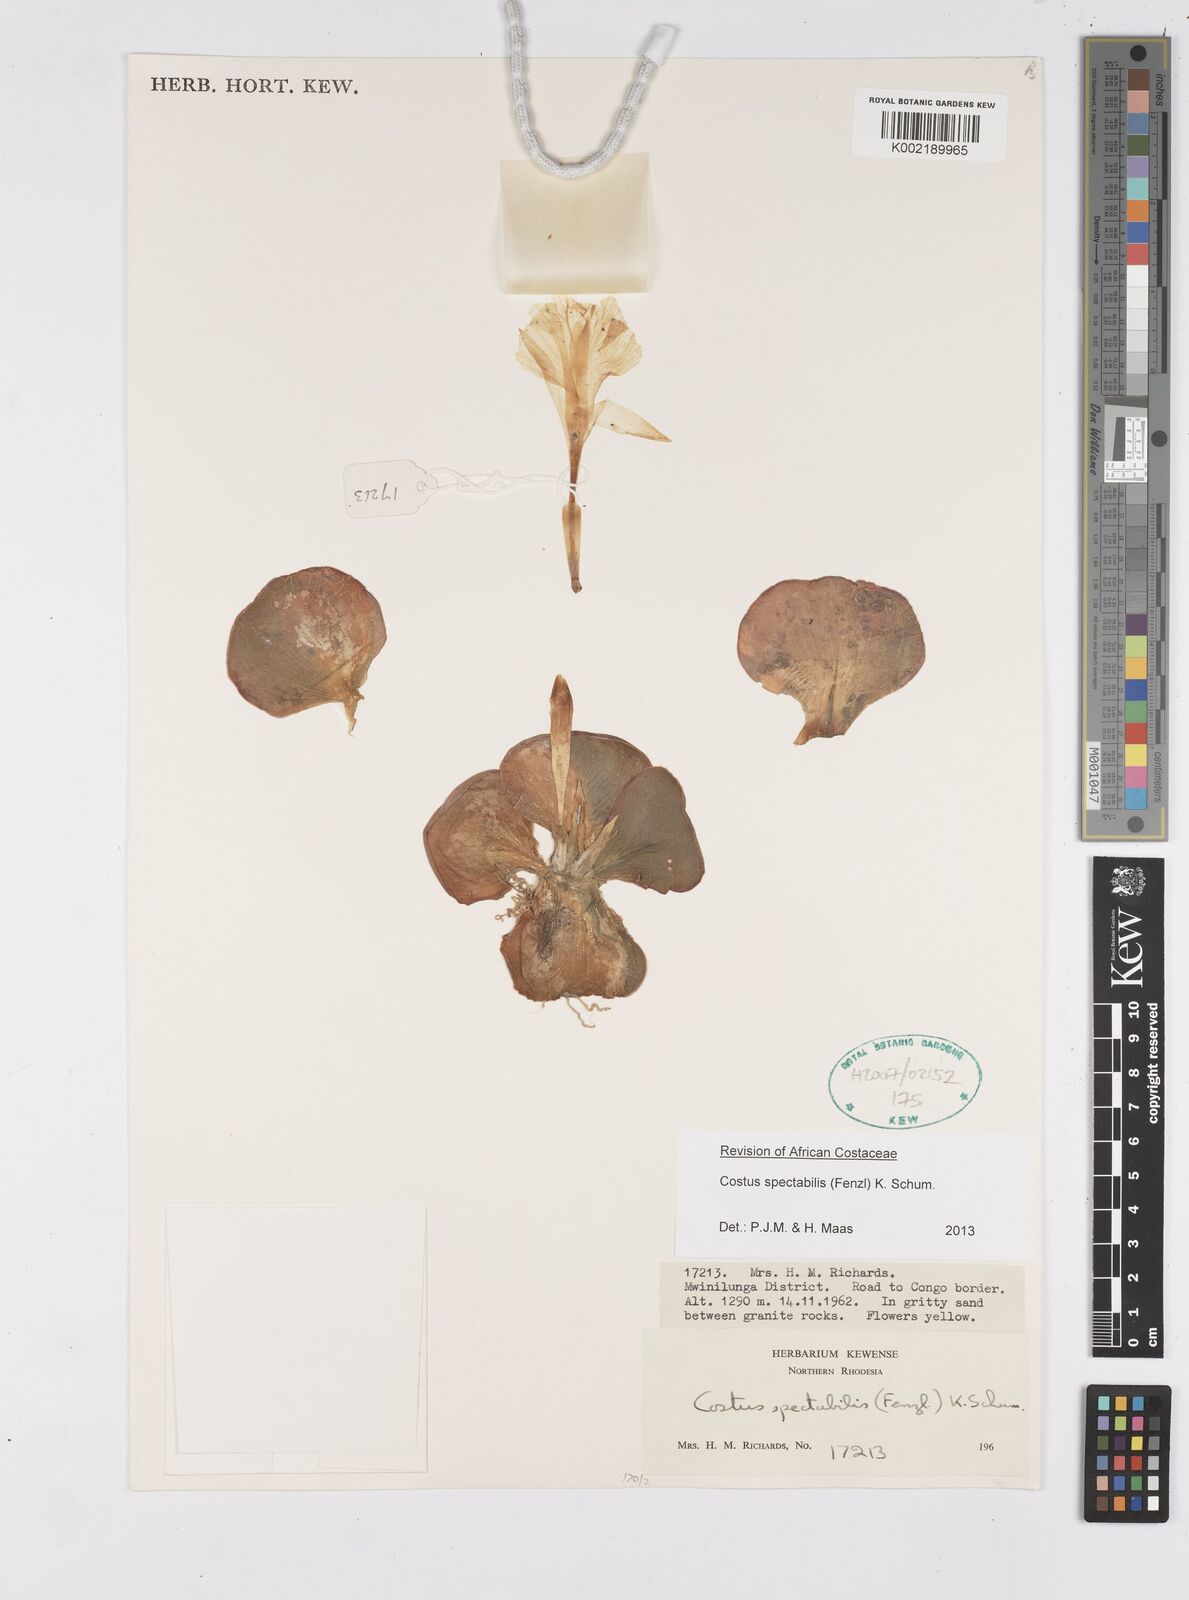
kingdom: Plantae
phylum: Tracheophyta
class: Liliopsida
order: Zingiberales
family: Costaceae
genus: Costus
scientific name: Costus spectabilis
